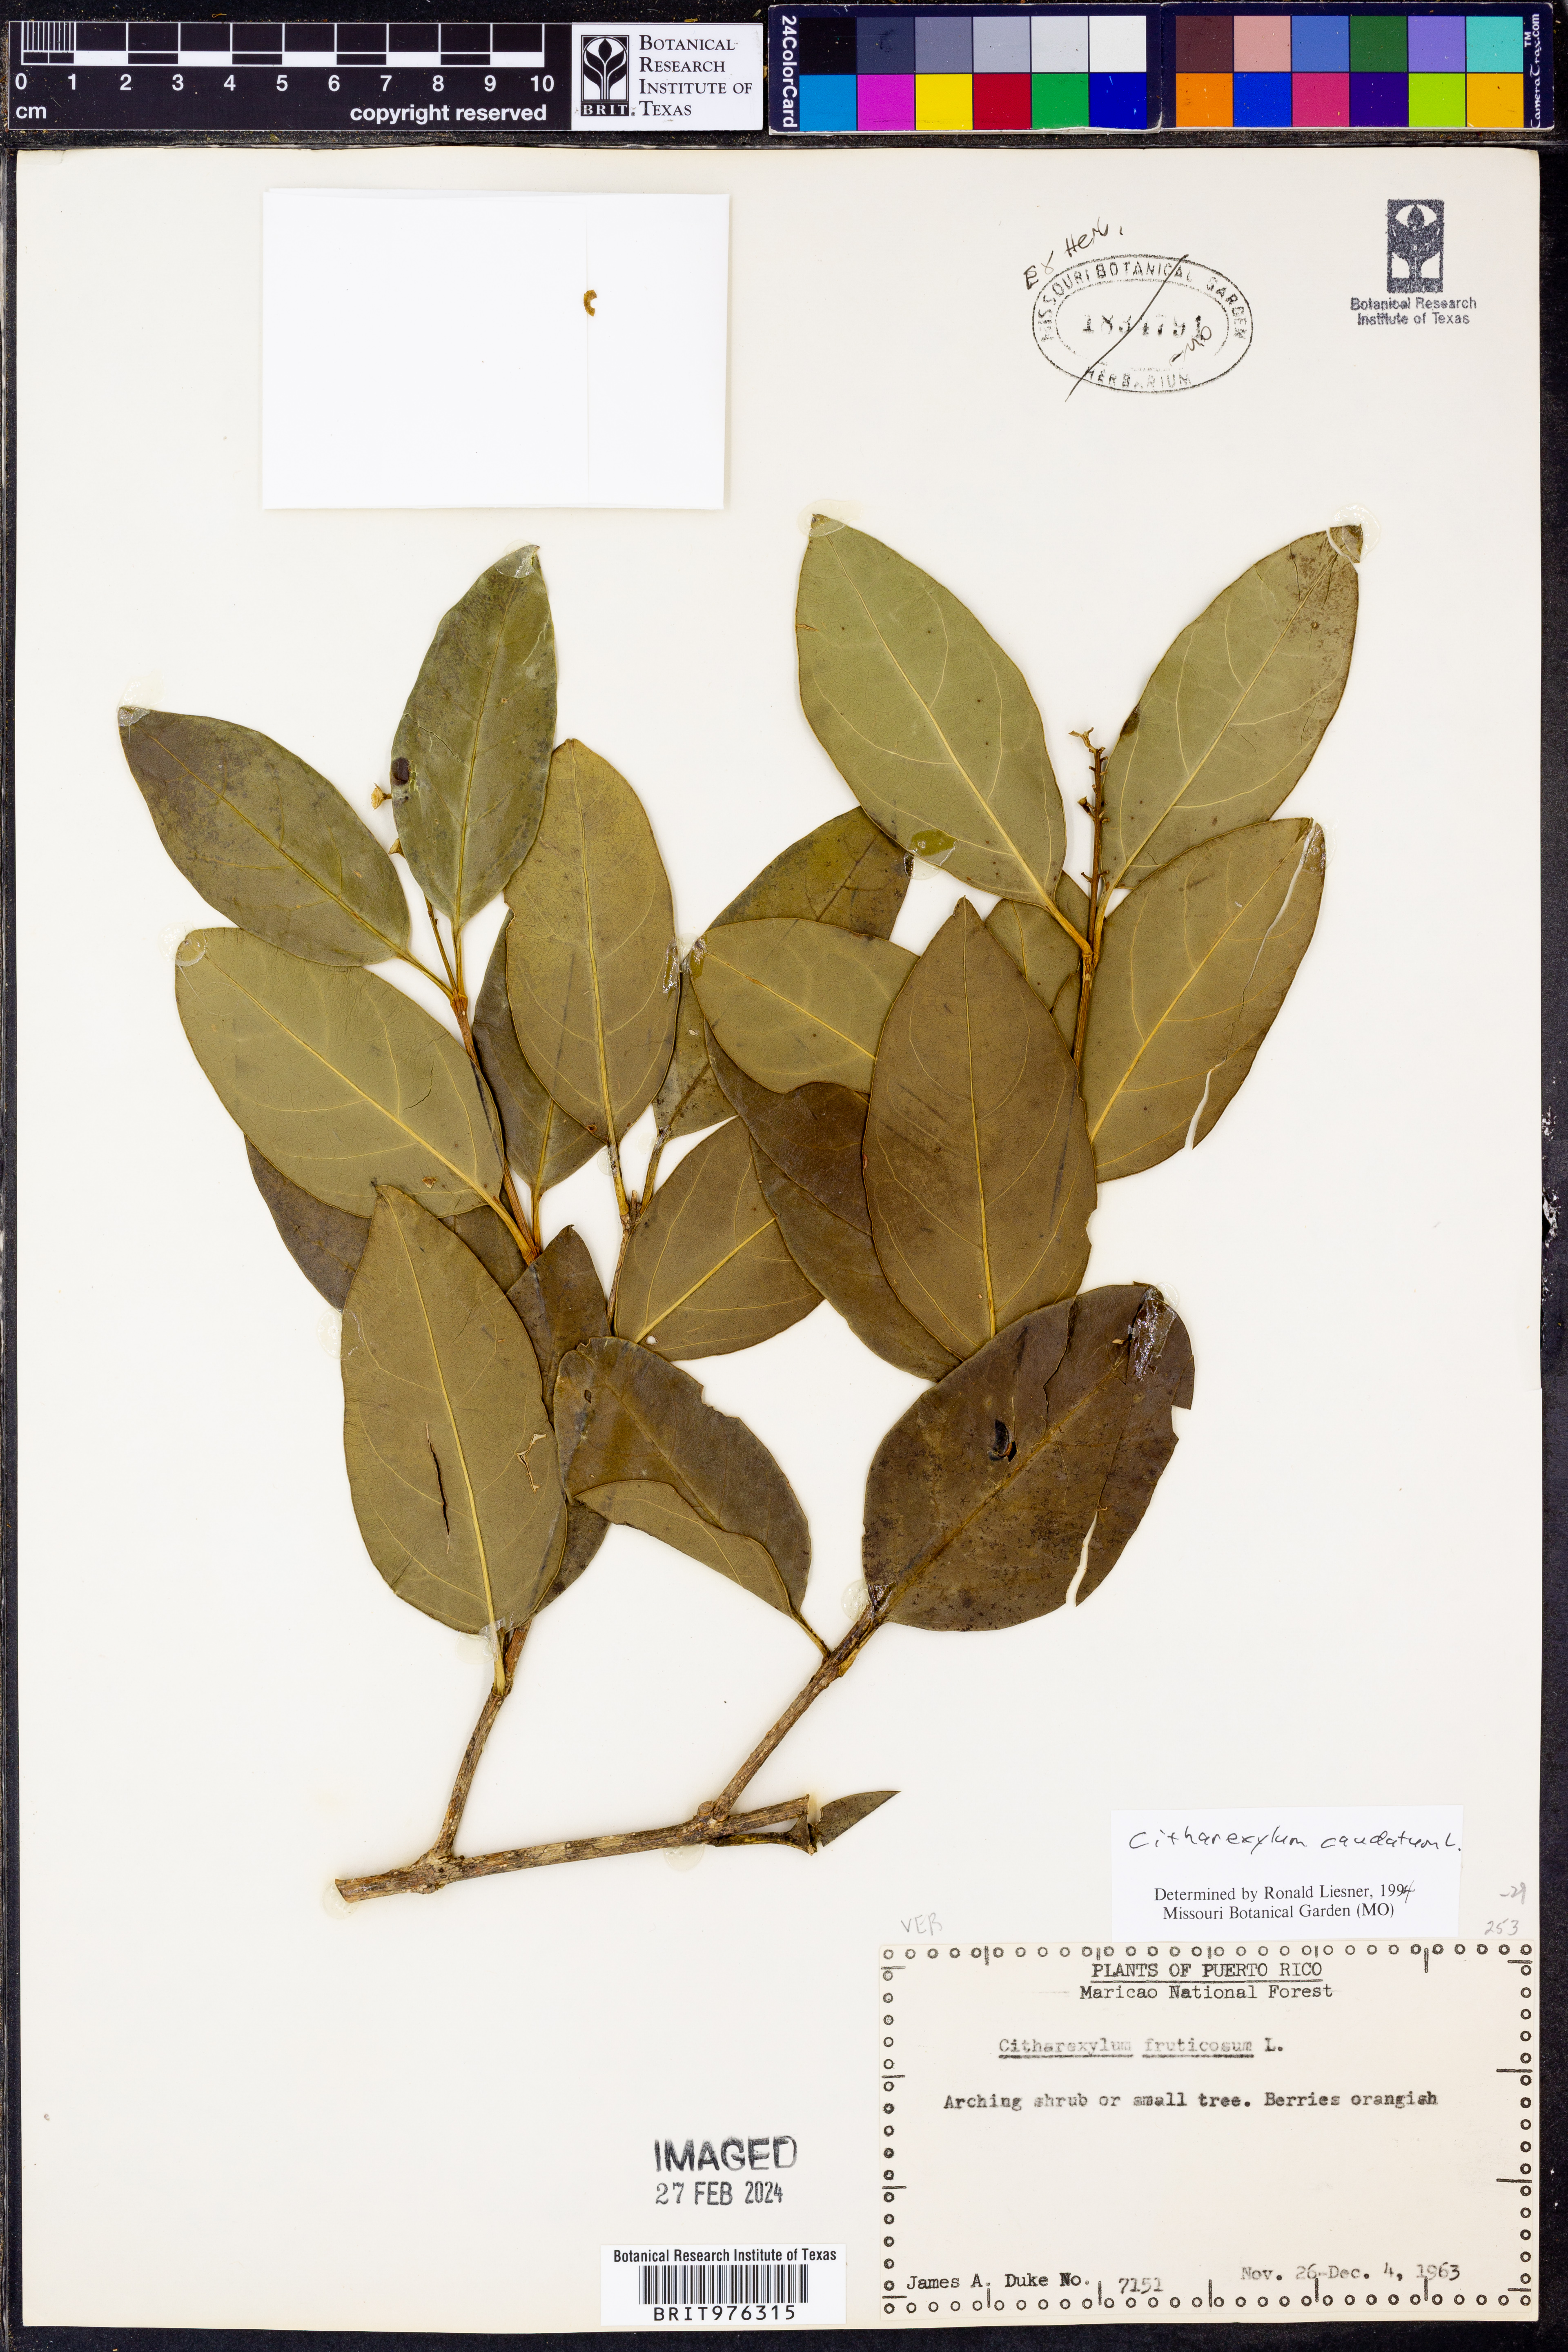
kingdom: Plantae
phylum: Tracheophyta
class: Magnoliopsida
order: Lamiales
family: Verbenaceae
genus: Citharexylum
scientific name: Citharexylum
